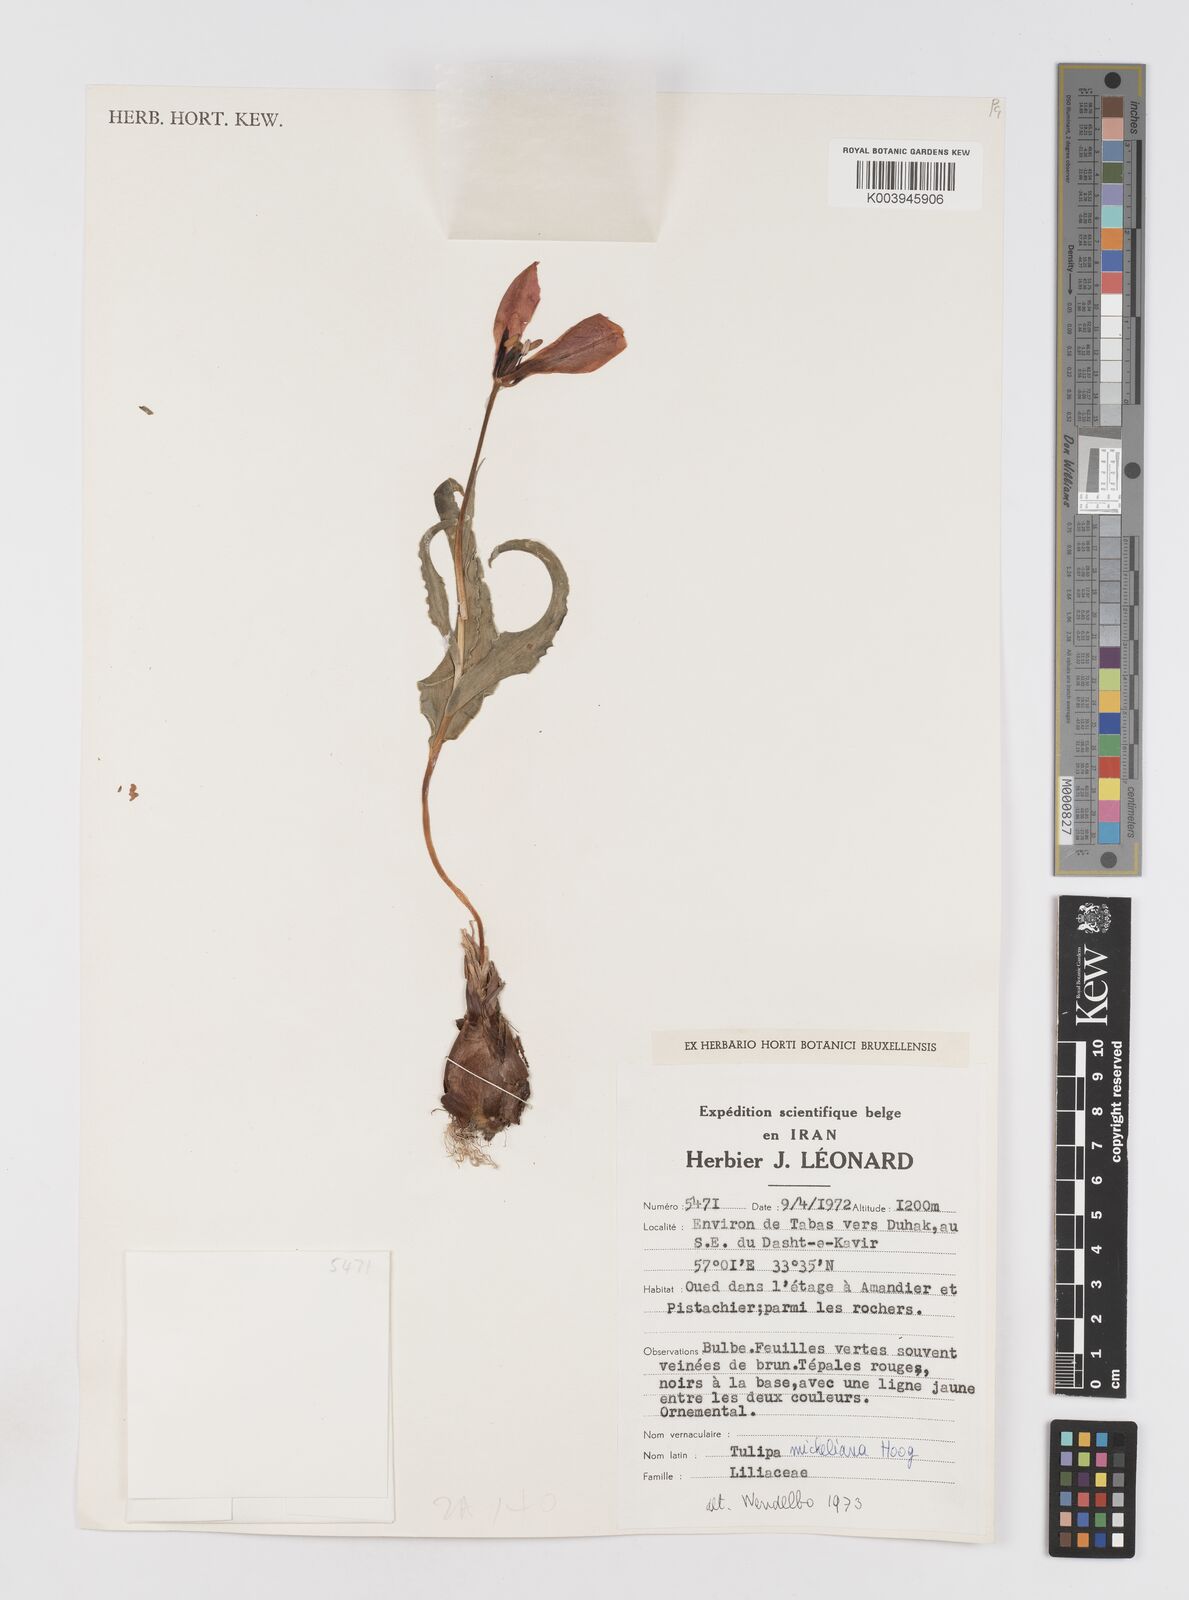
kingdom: Plantae
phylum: Tracheophyta
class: Liliopsida
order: Liliales
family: Liliaceae
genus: Tulipa
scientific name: Tulipa undulatifolia
